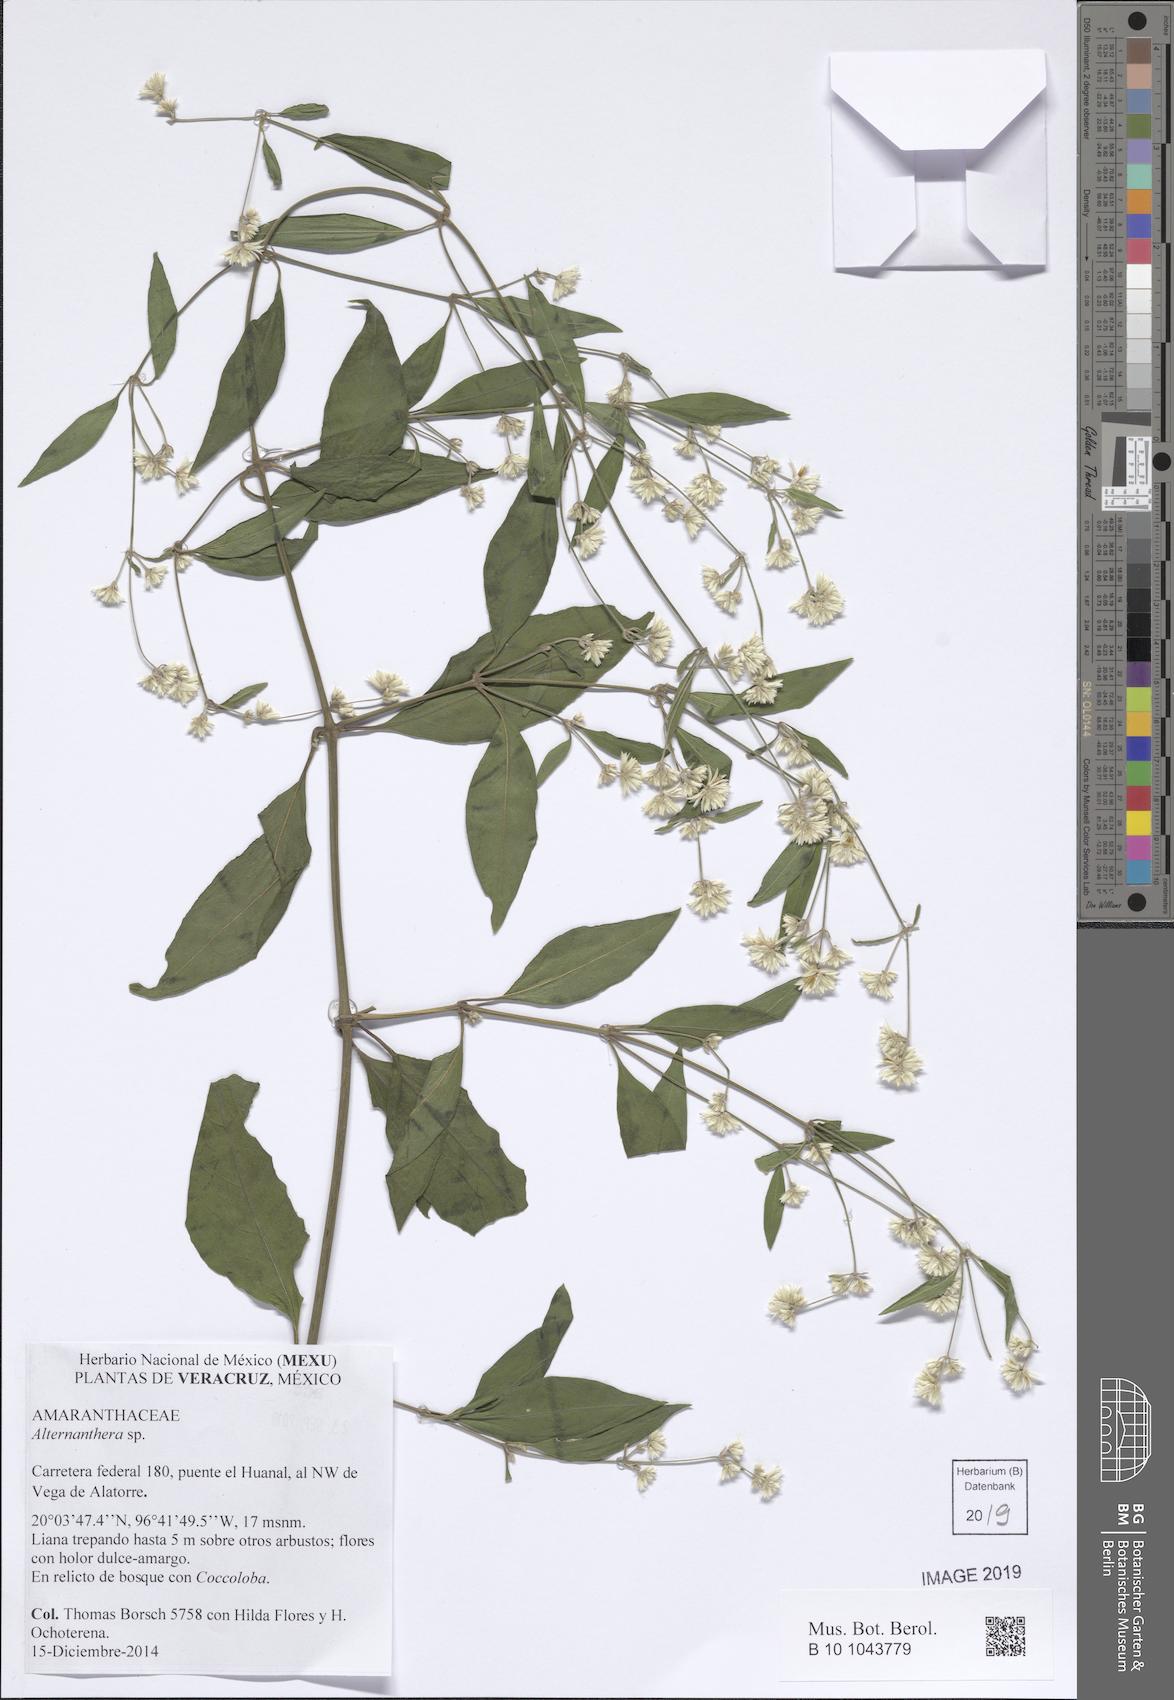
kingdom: Plantae
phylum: Tracheophyta
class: Magnoliopsida
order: Caryophyllales
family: Amaranthaceae
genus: Alternanthera
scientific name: Alternanthera
